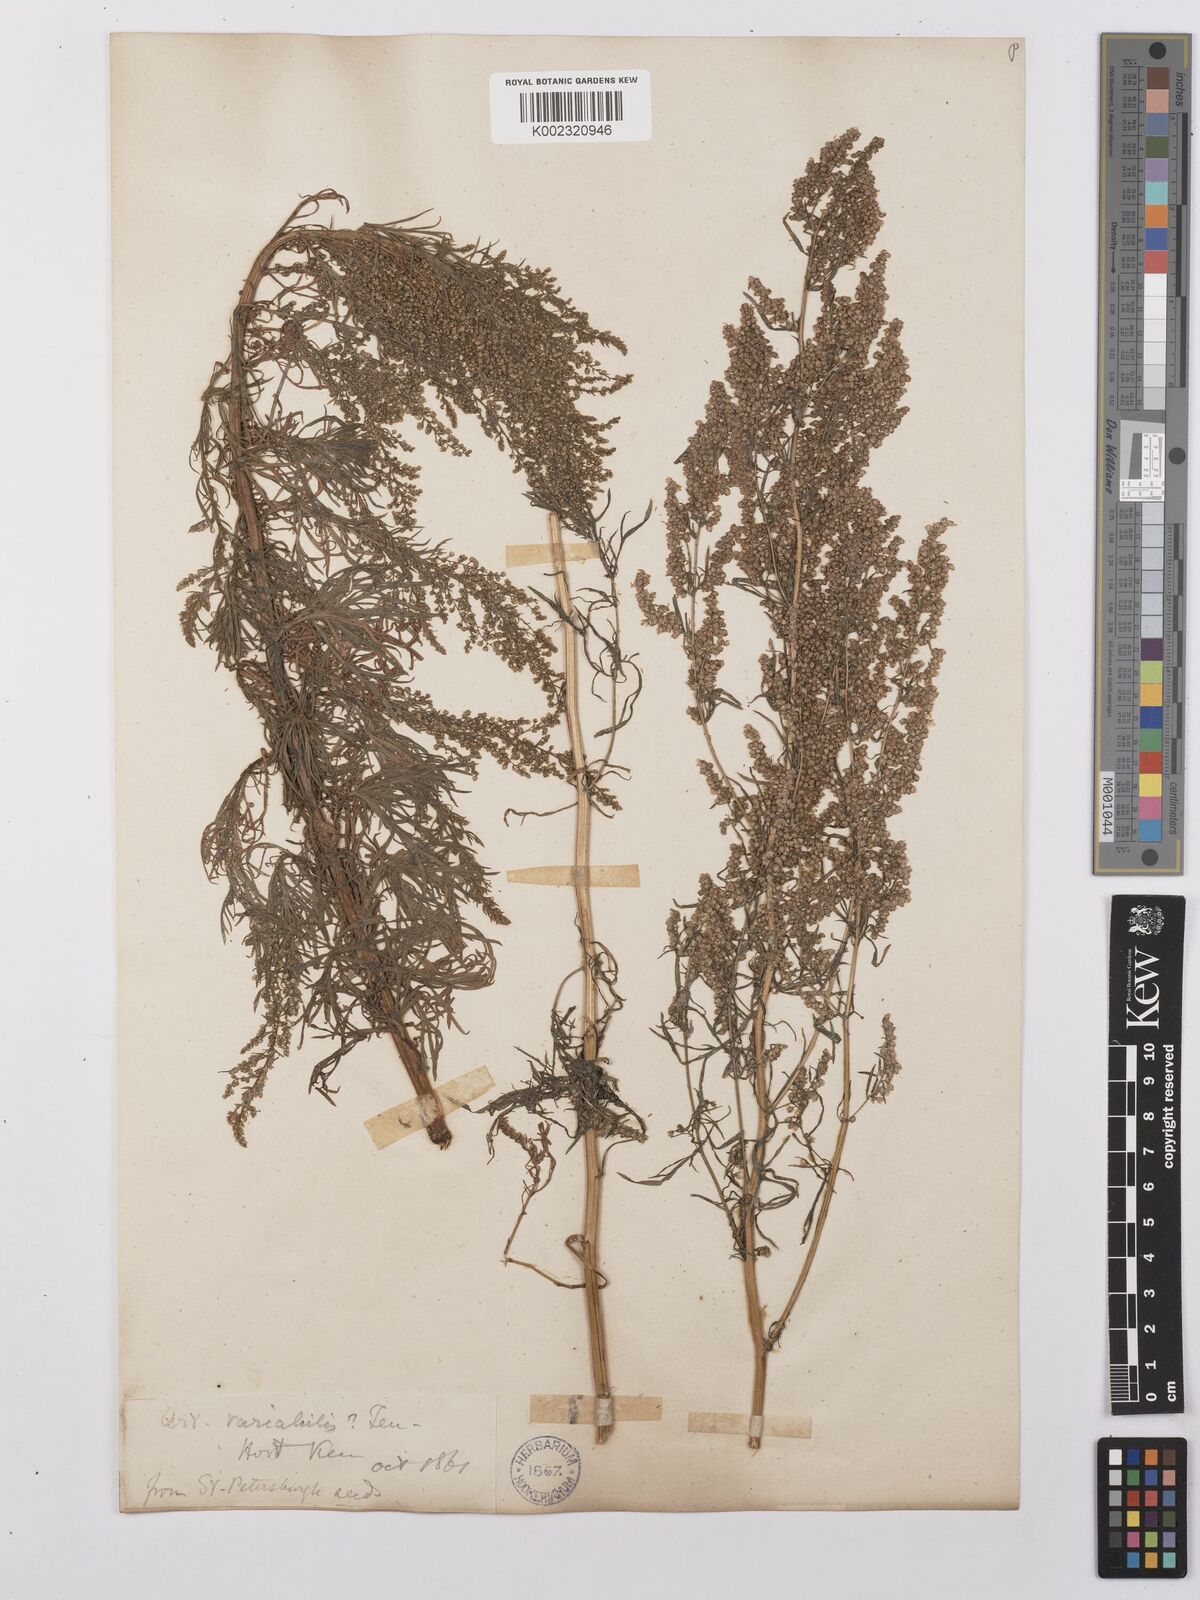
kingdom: Plantae
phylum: Tracheophyta
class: Magnoliopsida
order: Asterales
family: Asteraceae
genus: Artemisia
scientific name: Artemisia campestris
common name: Field wormwood
